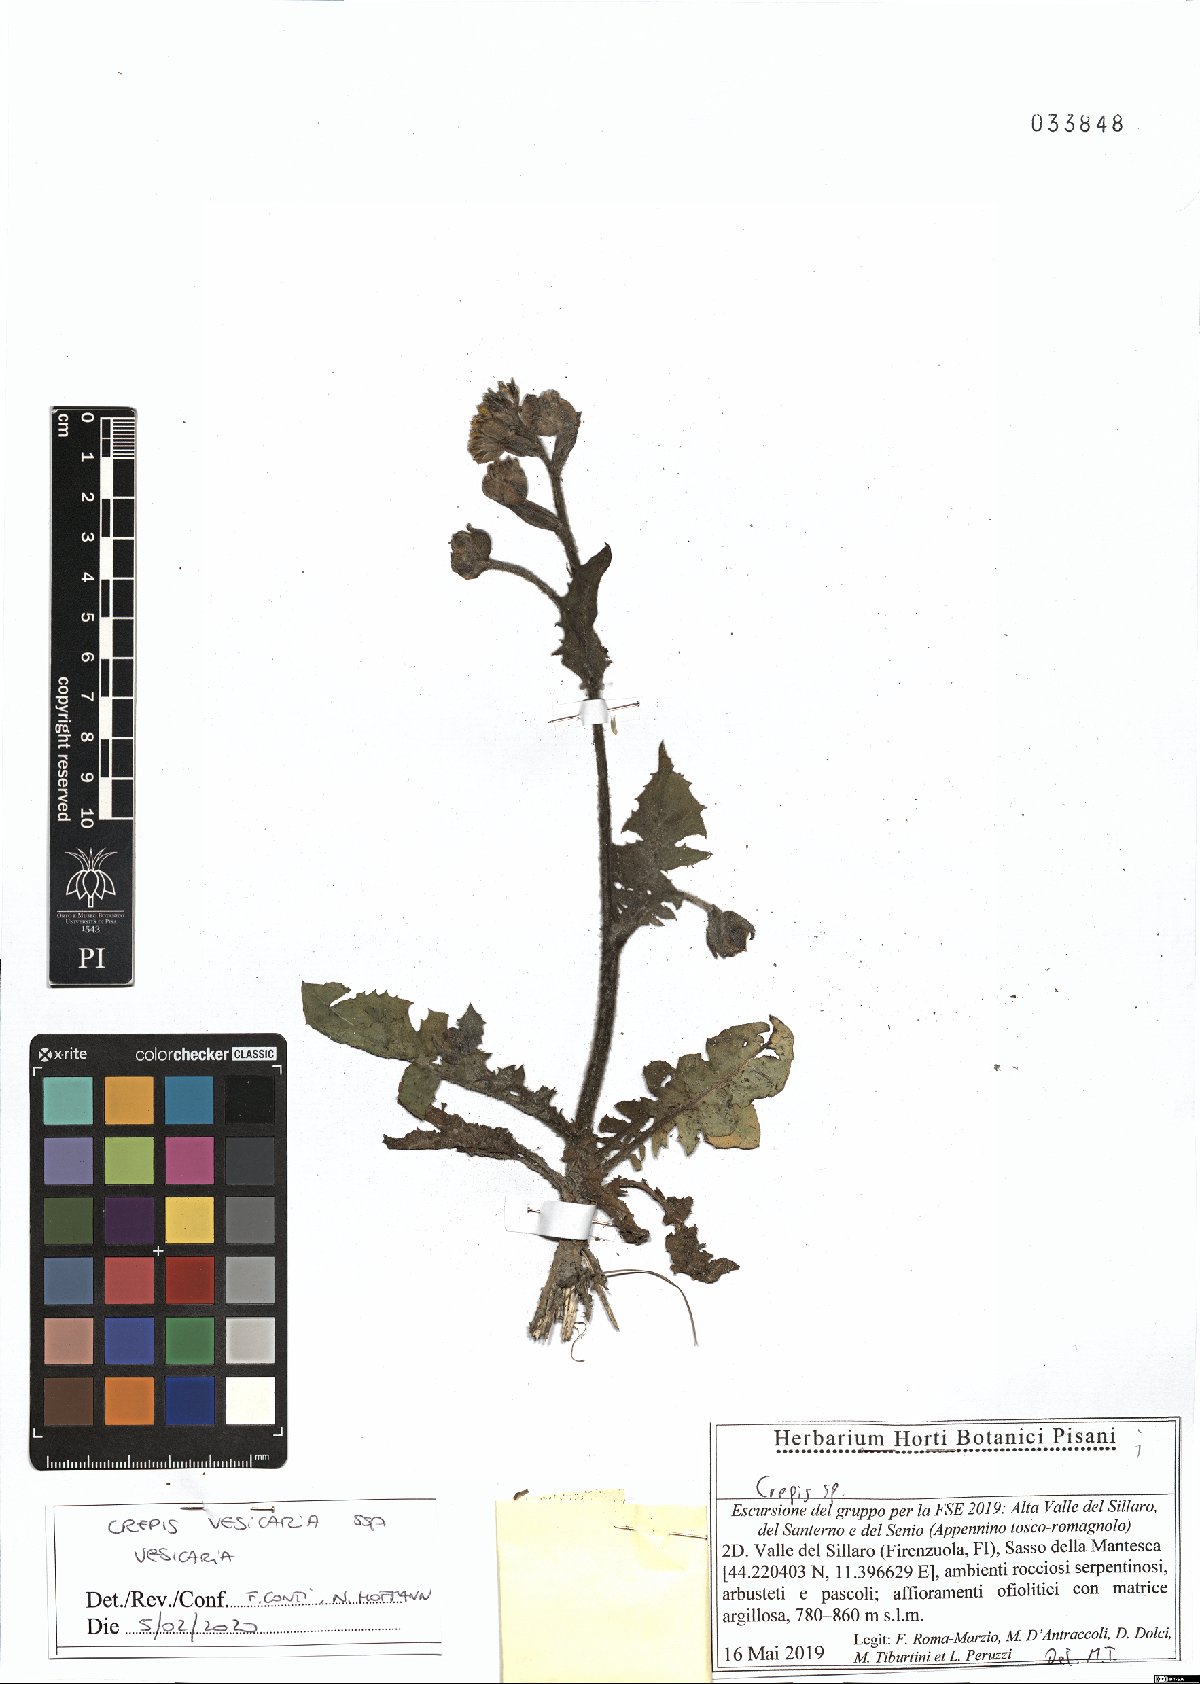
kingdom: Plantae
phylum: Tracheophyta
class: Magnoliopsida
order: Asterales
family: Asteraceae
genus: Crepis
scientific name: Crepis vesicaria
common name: Beaked hawksbeard
